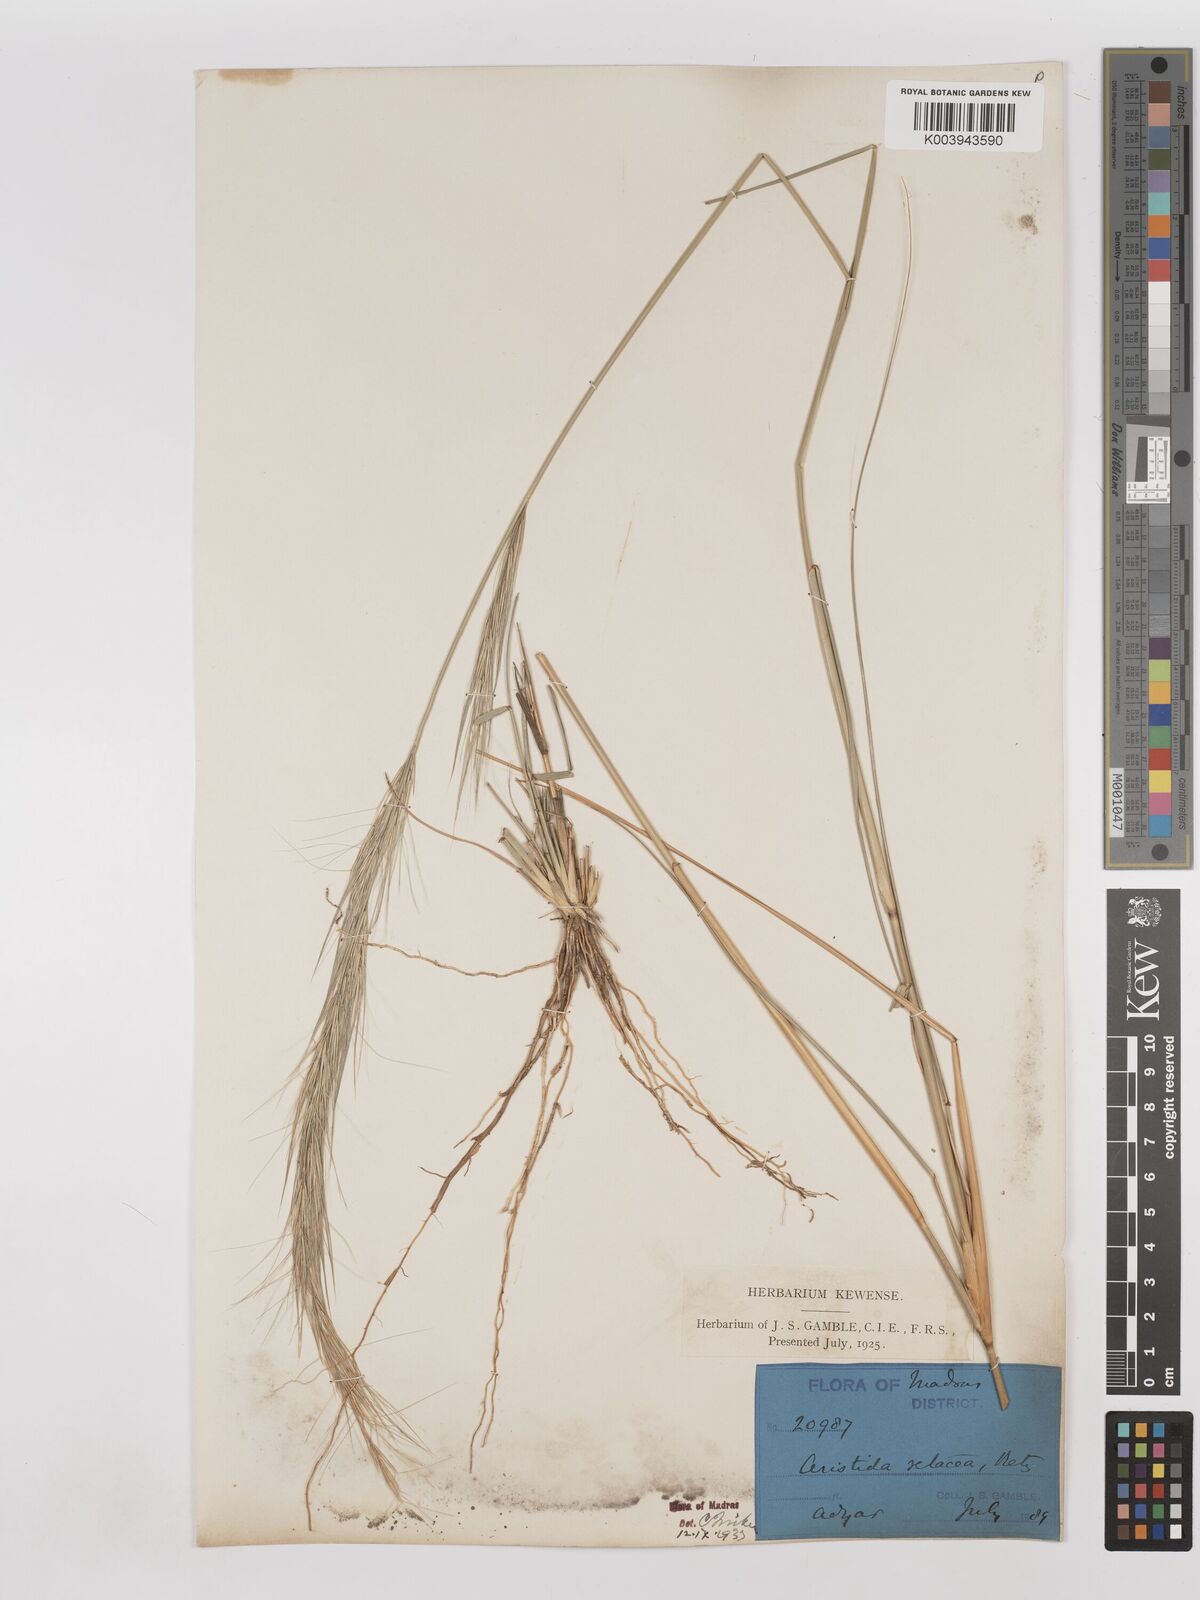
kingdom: Plantae
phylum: Tracheophyta
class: Liliopsida
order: Poales
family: Poaceae
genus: Aristida
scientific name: Aristida setacea
